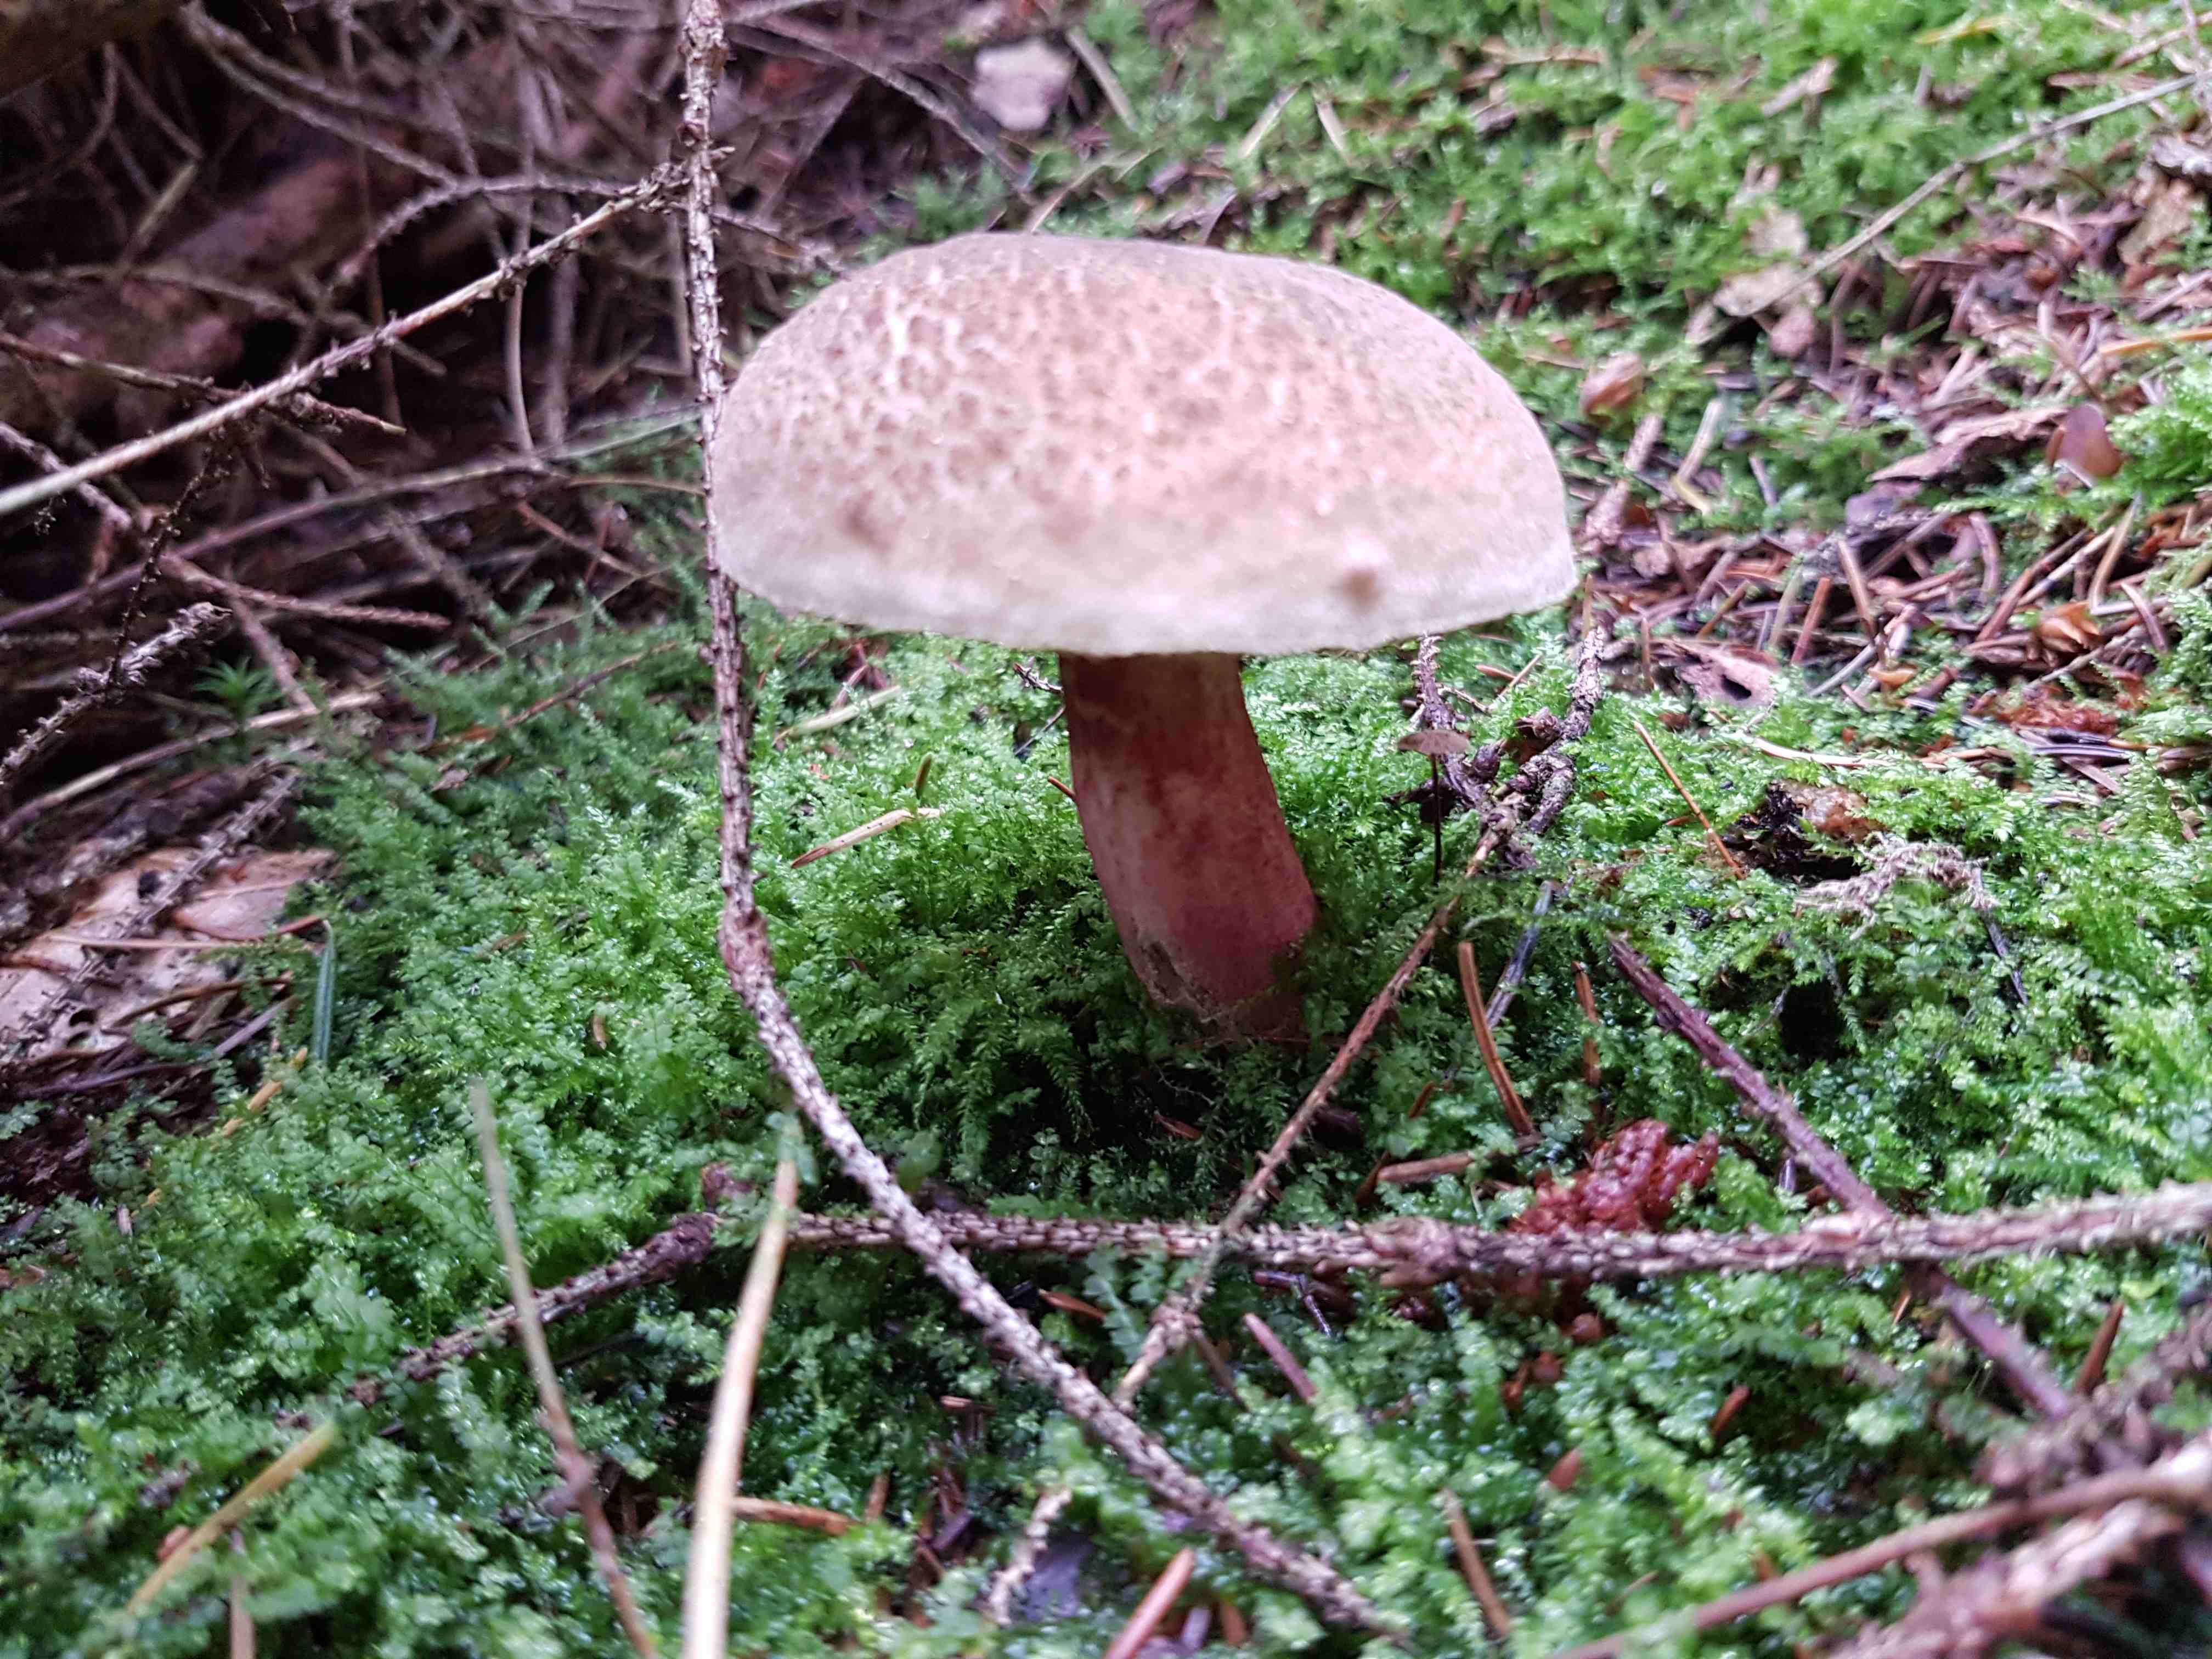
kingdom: Fungi
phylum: Basidiomycota
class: Agaricomycetes
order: Boletales
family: Boletaceae
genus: Xerocomellus
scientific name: Xerocomellus
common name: dværgrørhat
